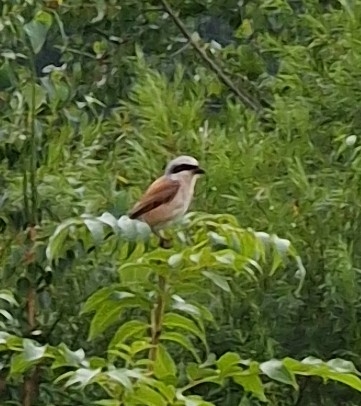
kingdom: Animalia
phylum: Chordata
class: Aves
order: Passeriformes
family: Laniidae
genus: Lanius
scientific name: Lanius collurio
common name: Rødrygget tornskade
